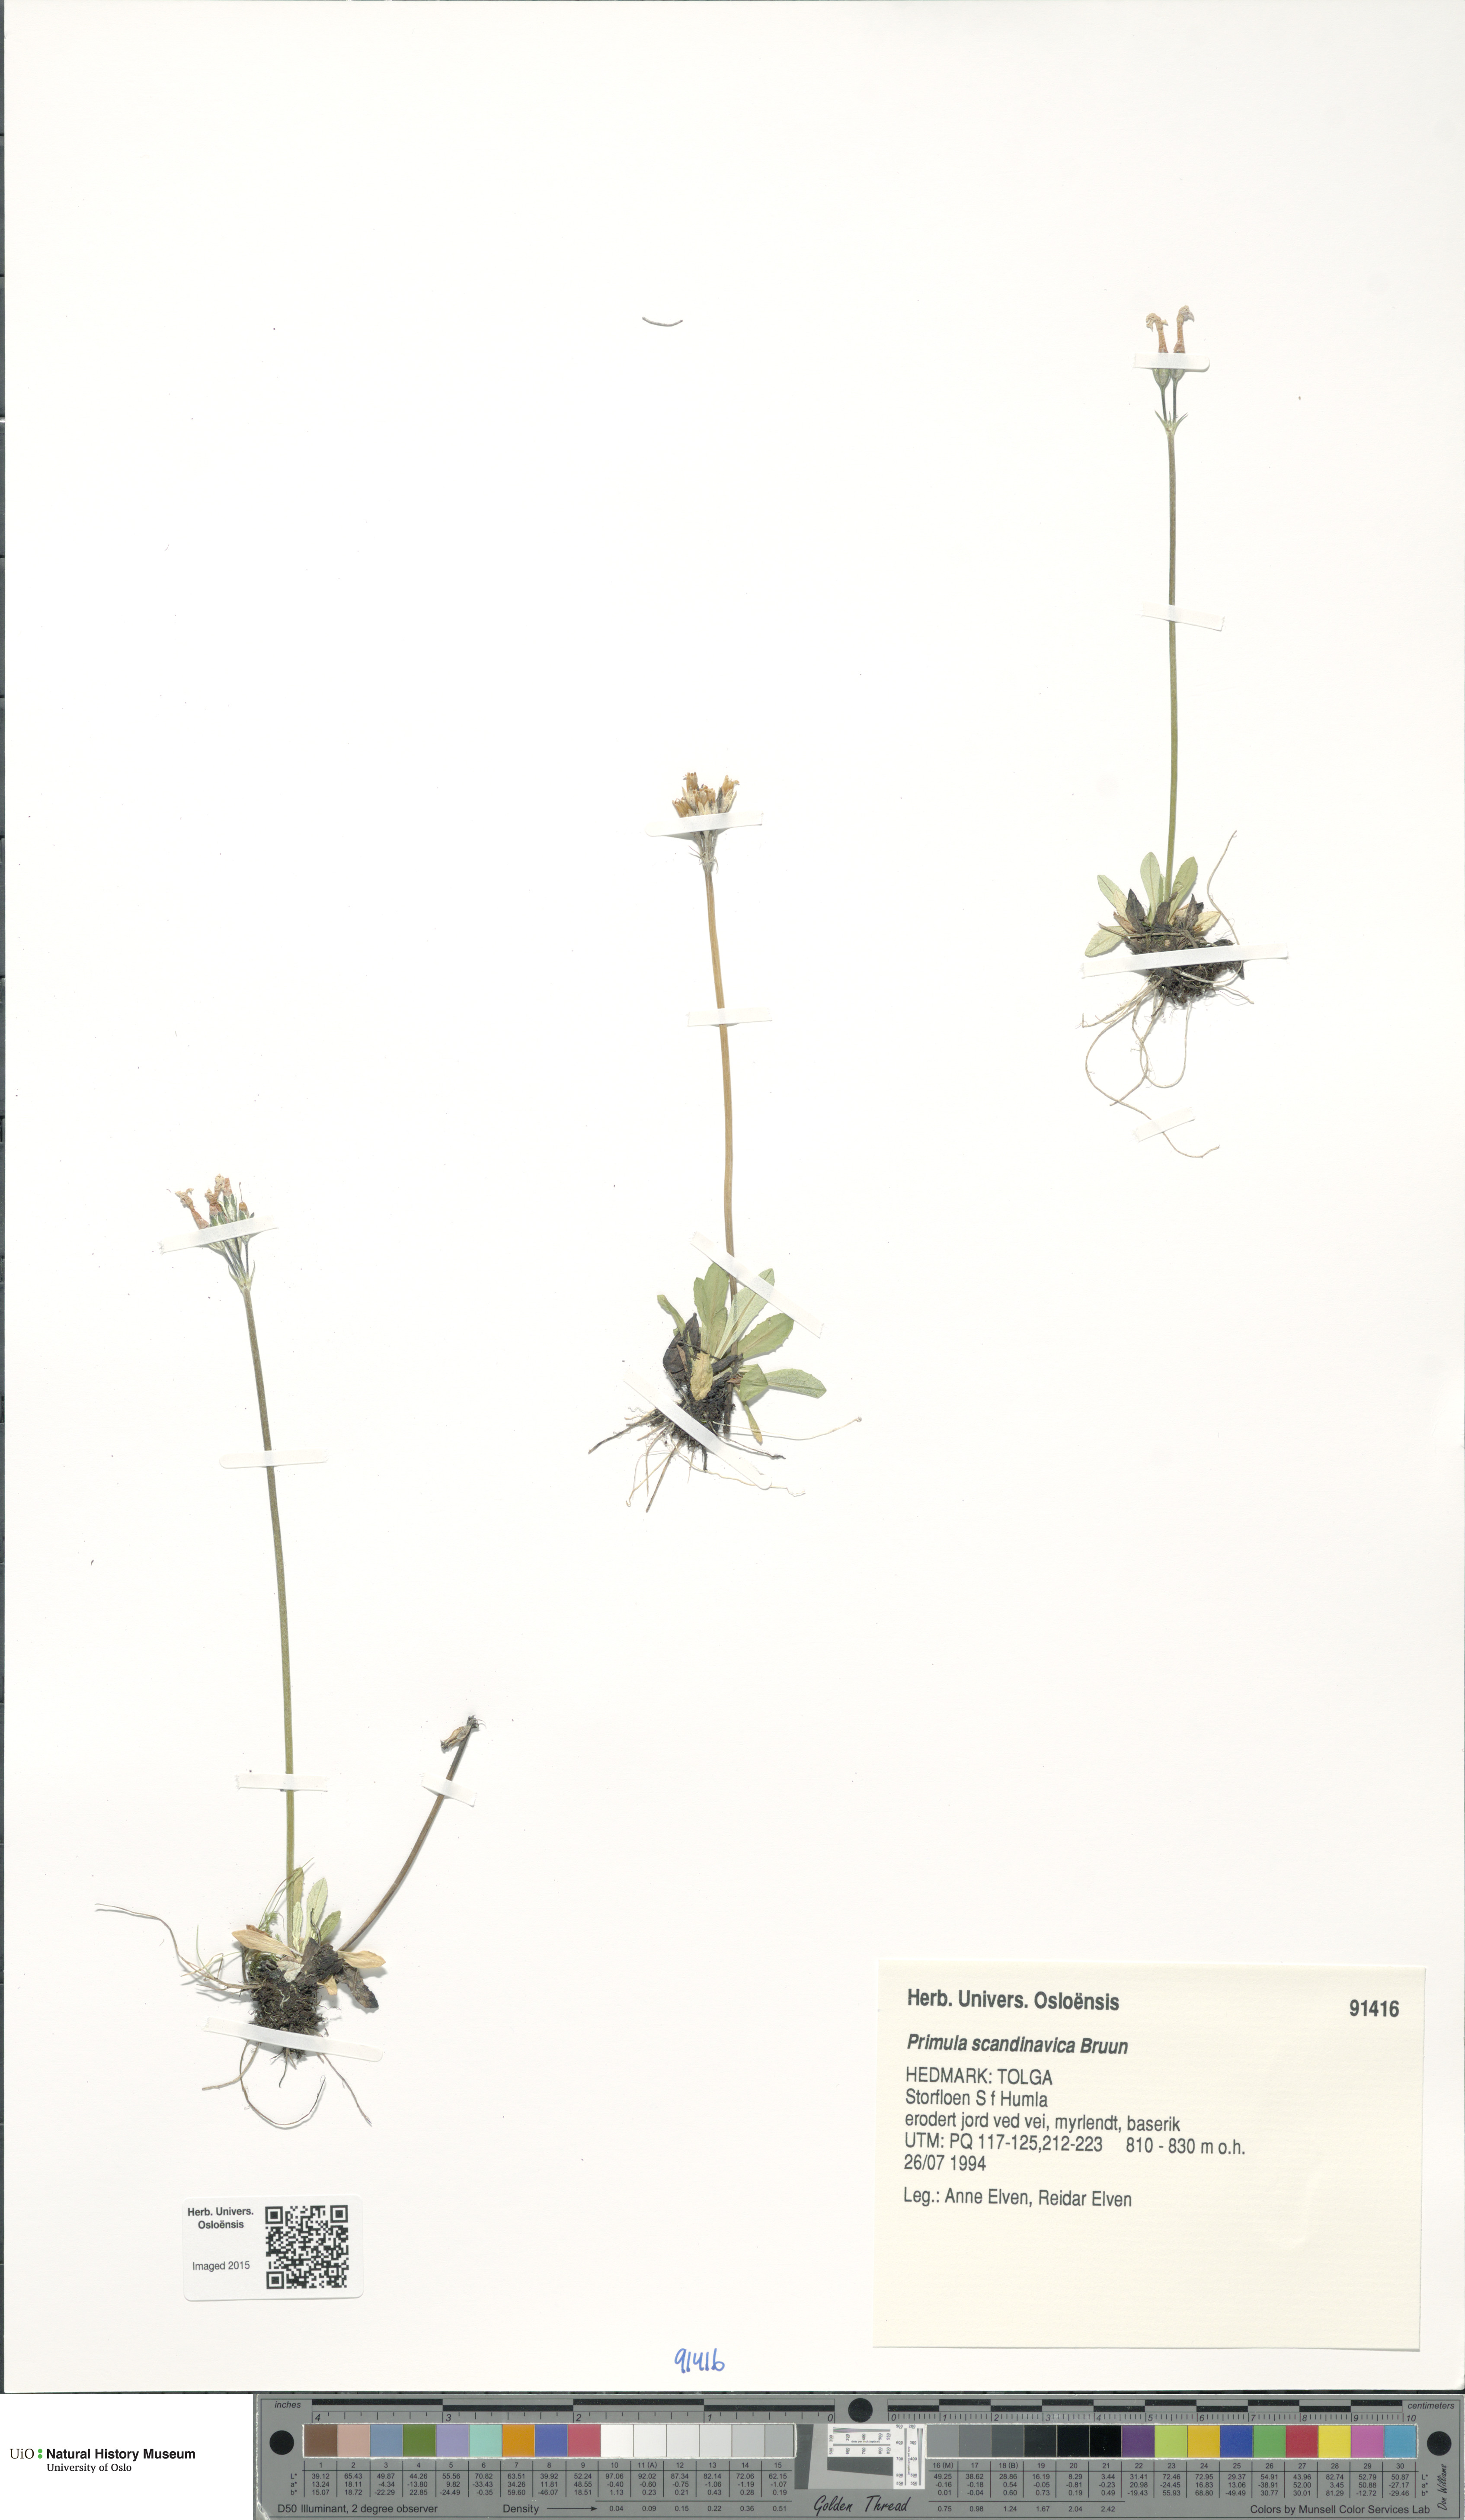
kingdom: Plantae
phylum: Tracheophyta
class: Magnoliopsida
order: Ericales
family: Primulaceae
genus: Primula
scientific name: Primula scandinavica
